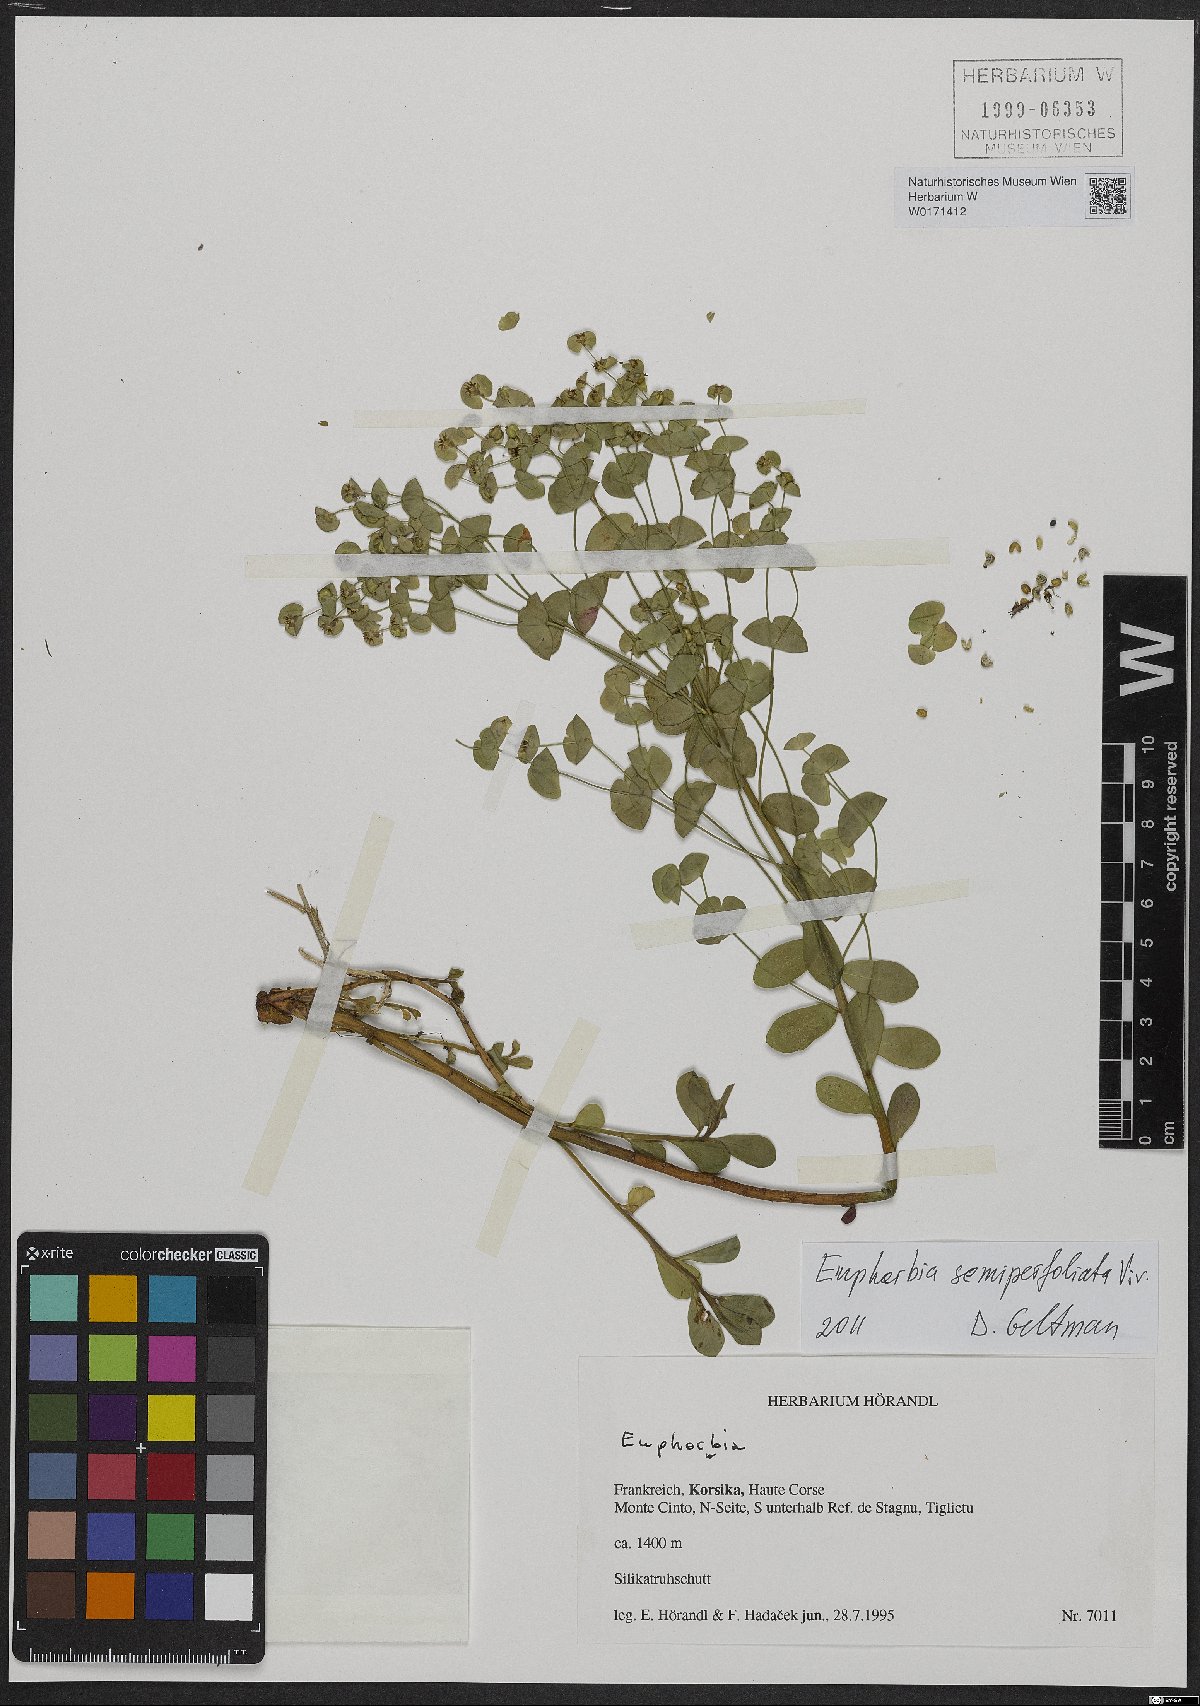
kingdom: Plantae
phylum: Tracheophyta
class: Magnoliopsida
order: Malpighiales
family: Euphorbiaceae
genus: Euphorbia
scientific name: Euphorbia semiperfoliata
